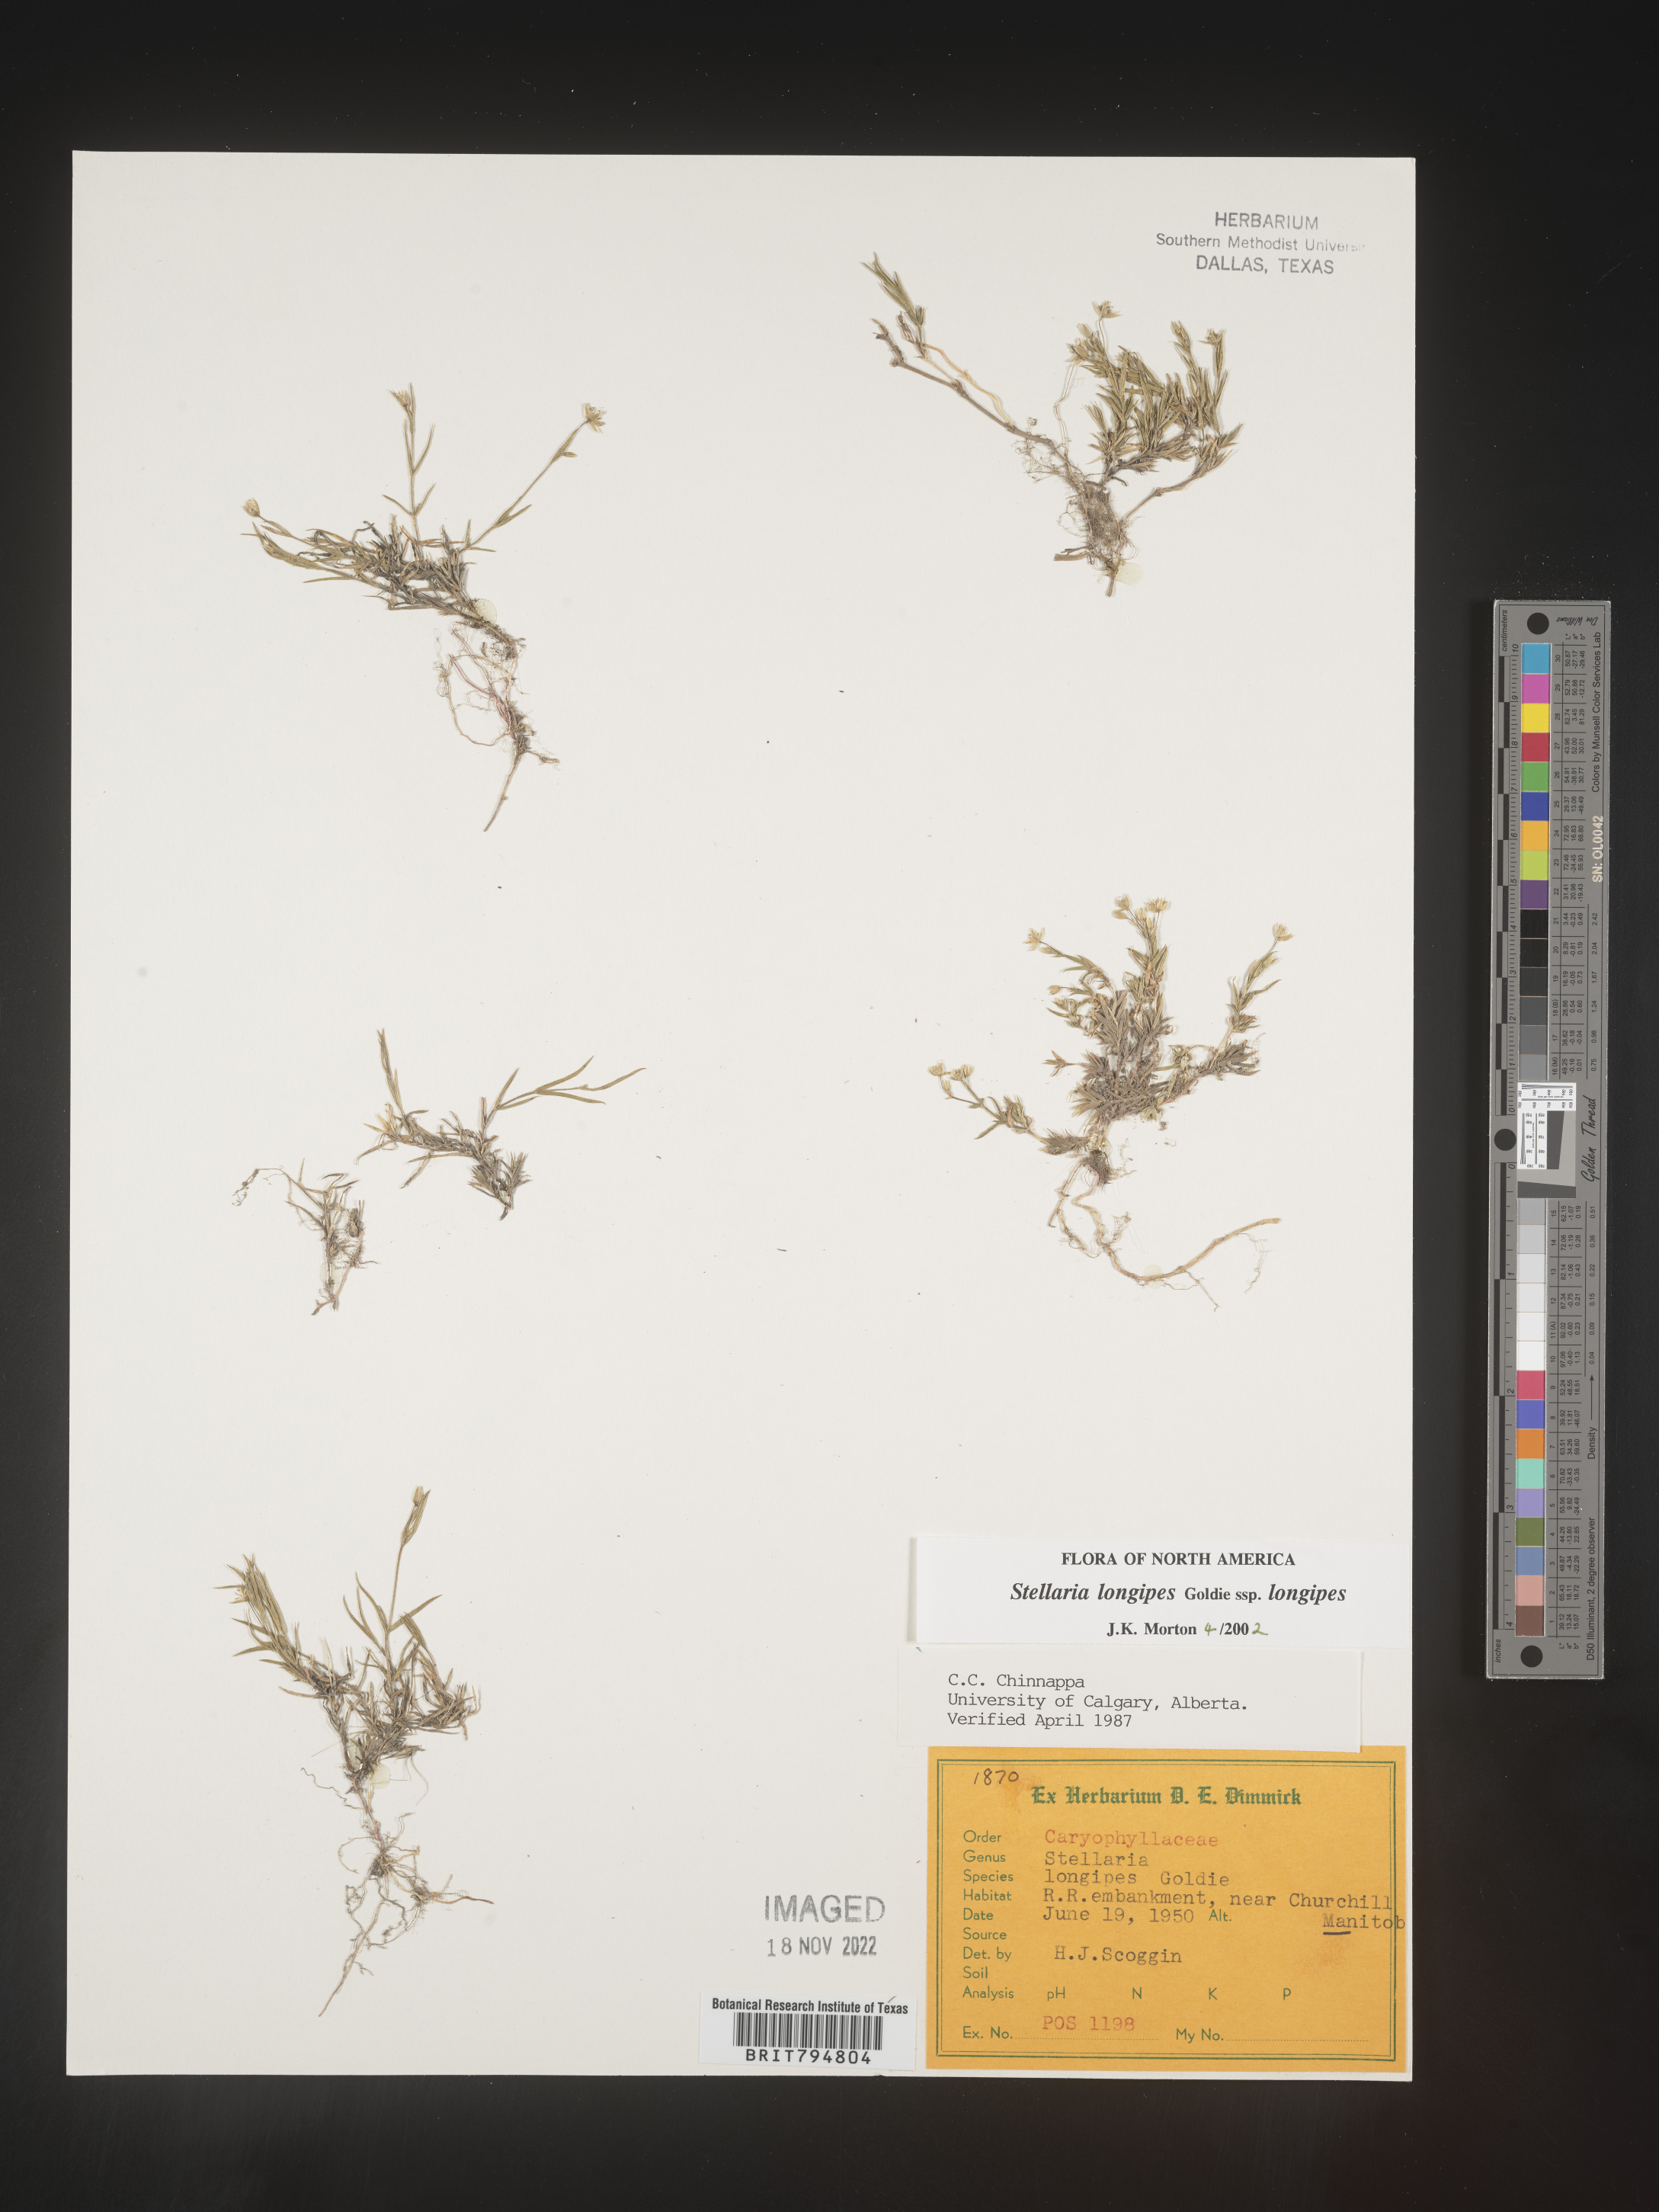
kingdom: Plantae
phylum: Tracheophyta
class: Magnoliopsida
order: Caryophyllales
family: Caryophyllaceae
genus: Stellaria
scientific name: Stellaria longipes
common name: Goldie's starwort
